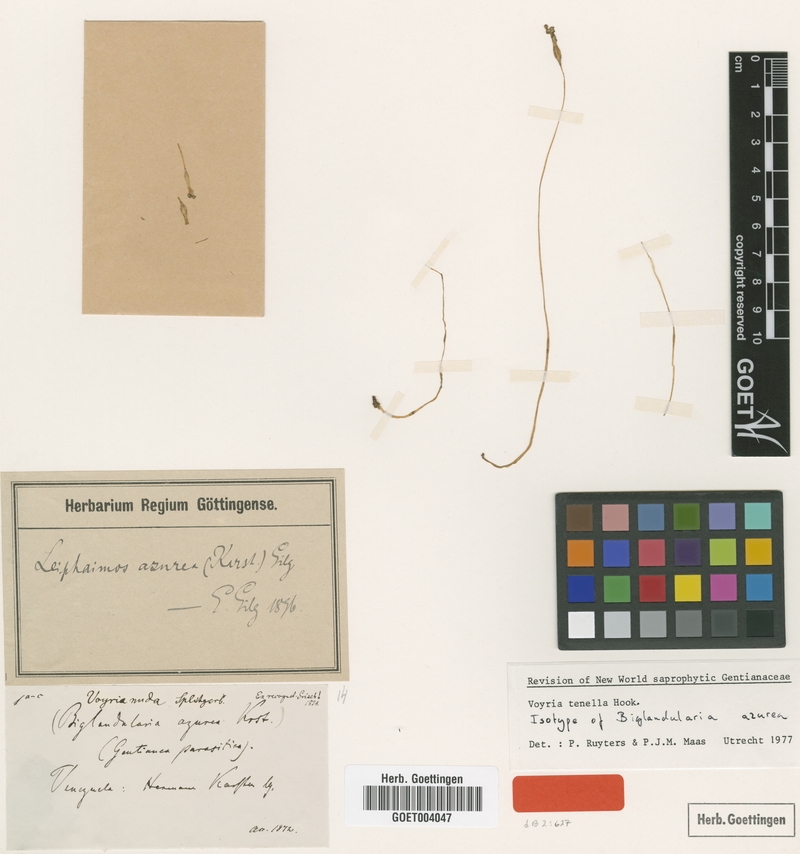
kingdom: Plantae
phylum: Tracheophyta
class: Magnoliopsida
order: Gentianales
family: Gentianaceae
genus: Voyria
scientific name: Voyria tenella
